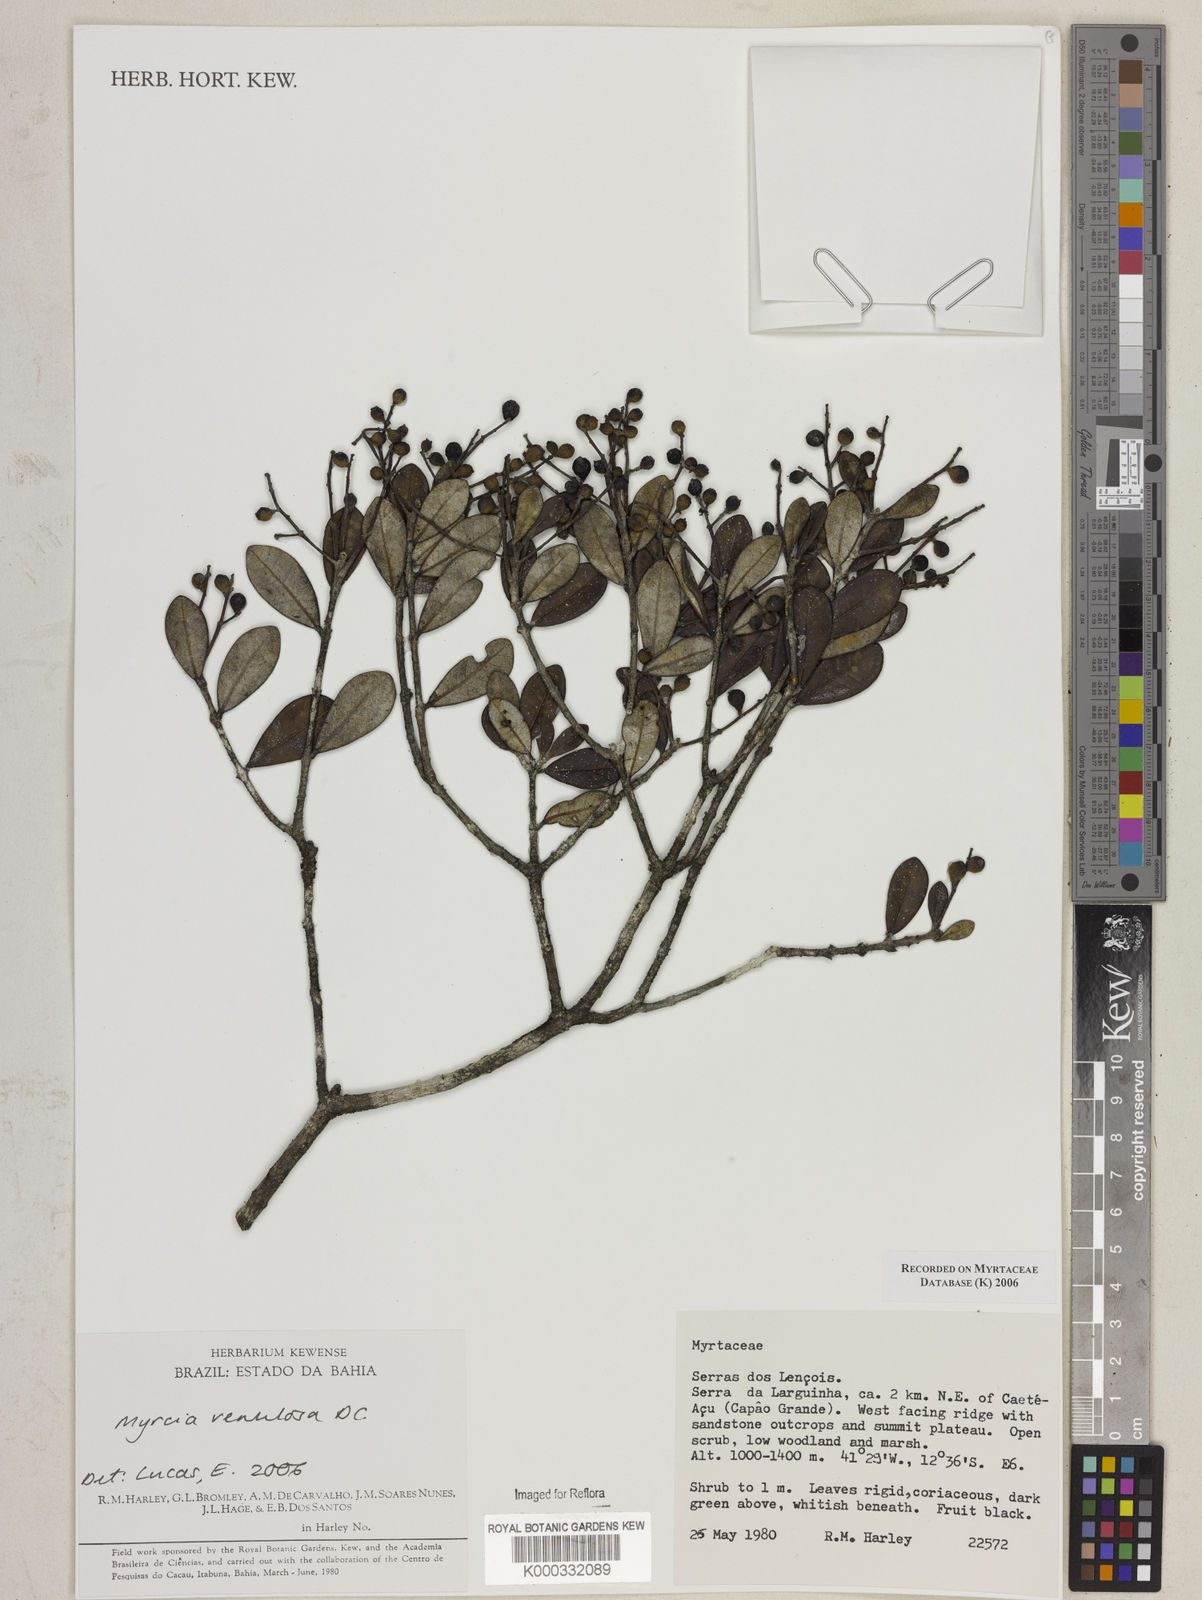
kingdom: Plantae
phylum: Tracheophyta
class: Magnoliopsida
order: Myrtales
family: Myrtaceae
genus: Myrcia
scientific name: Myrcia venulosa
